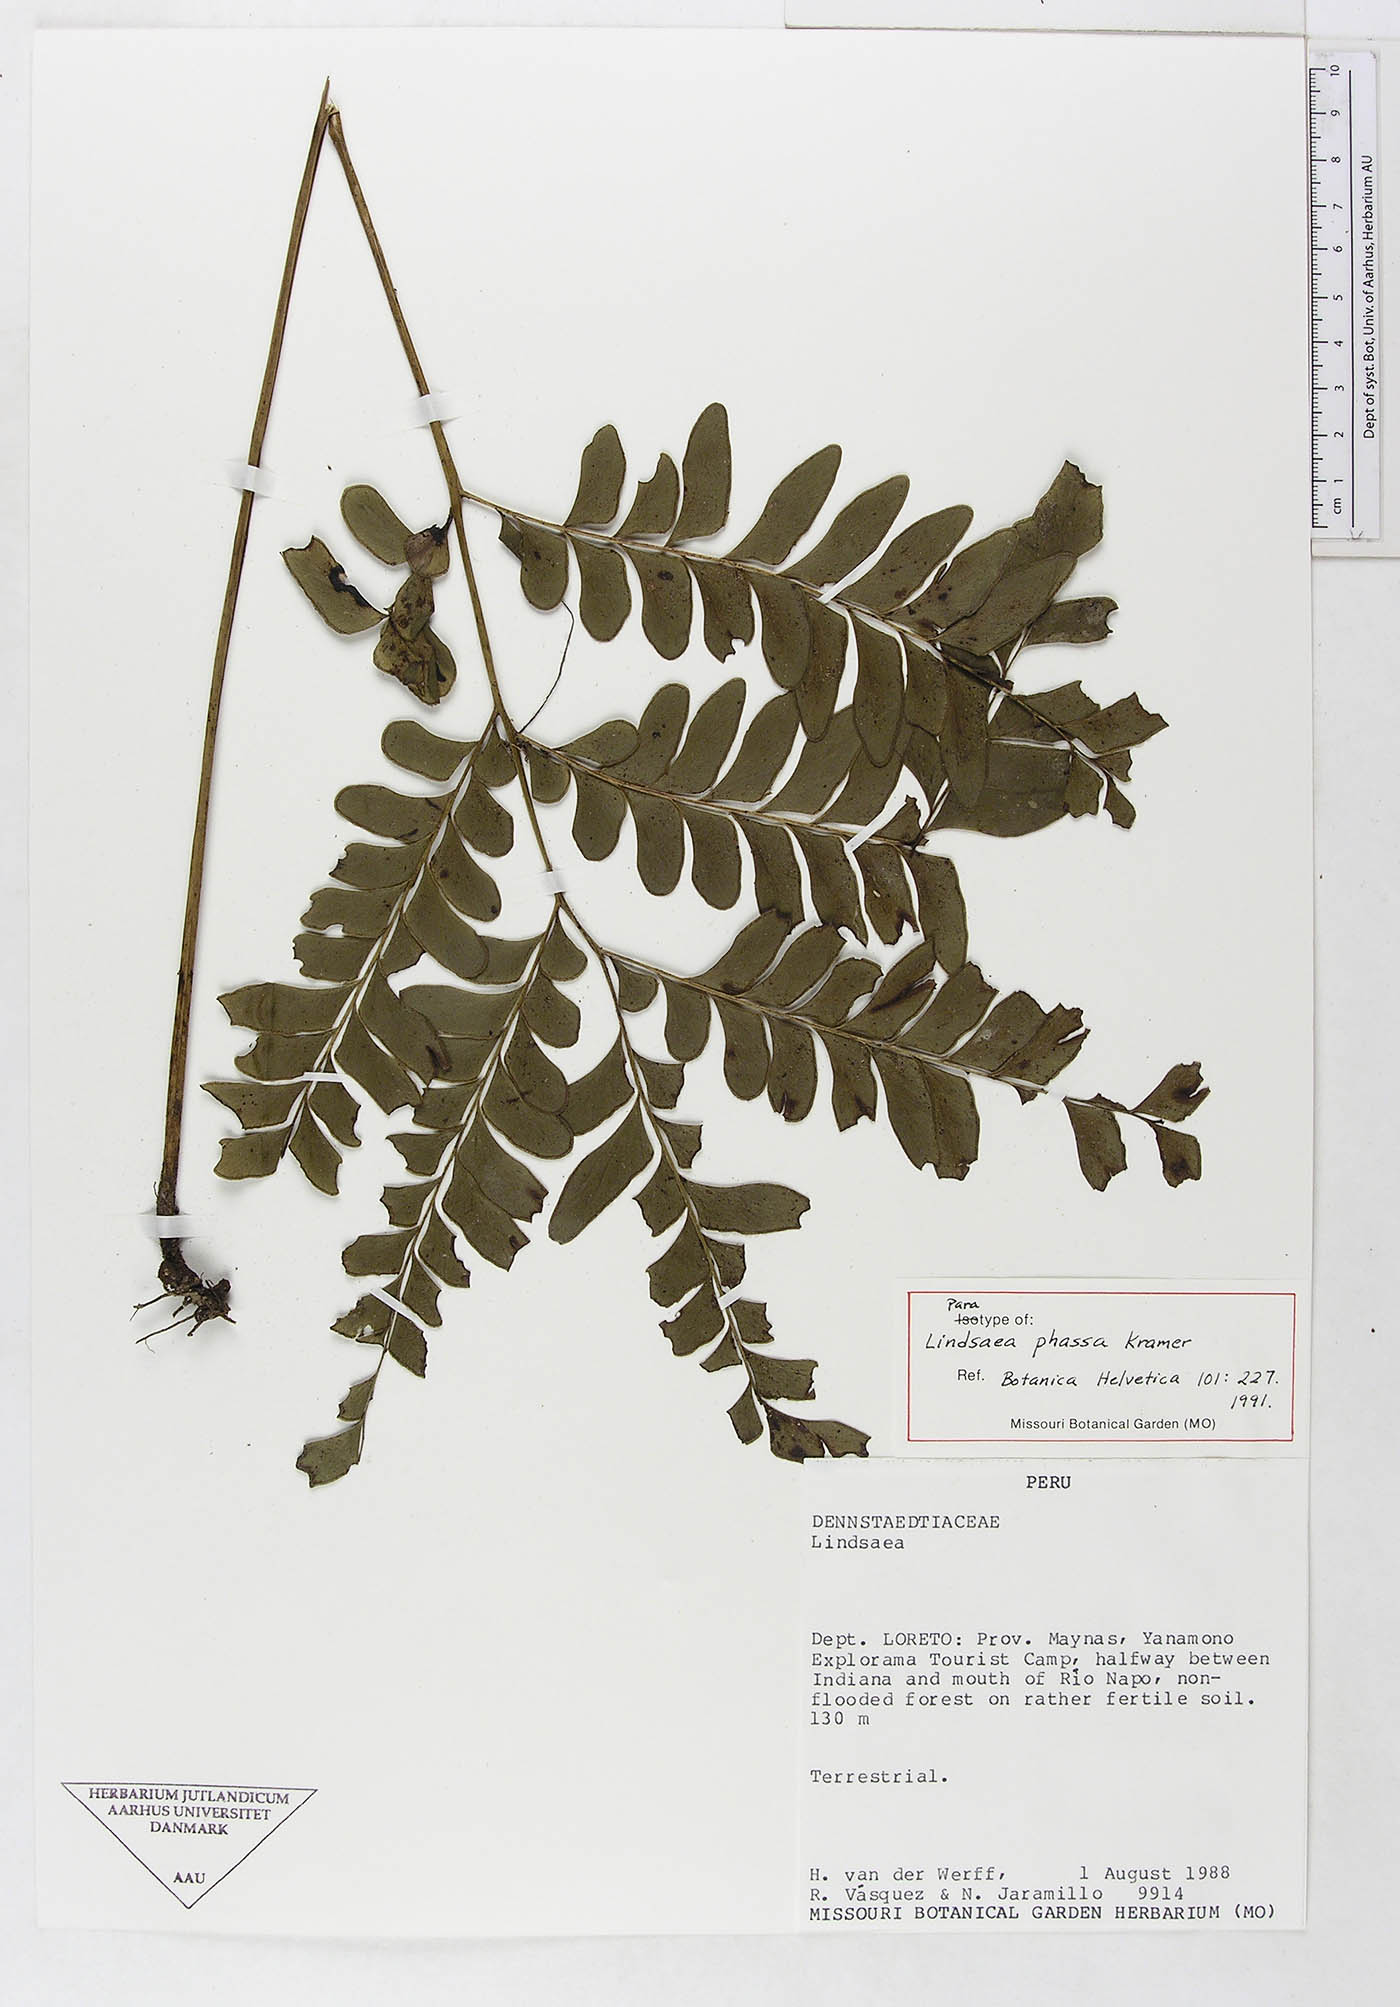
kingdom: Plantae
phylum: Tracheophyta
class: Polypodiopsida
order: Polypodiales
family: Lindsaeaceae
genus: Lindsaea
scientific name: Lindsaea phassa
